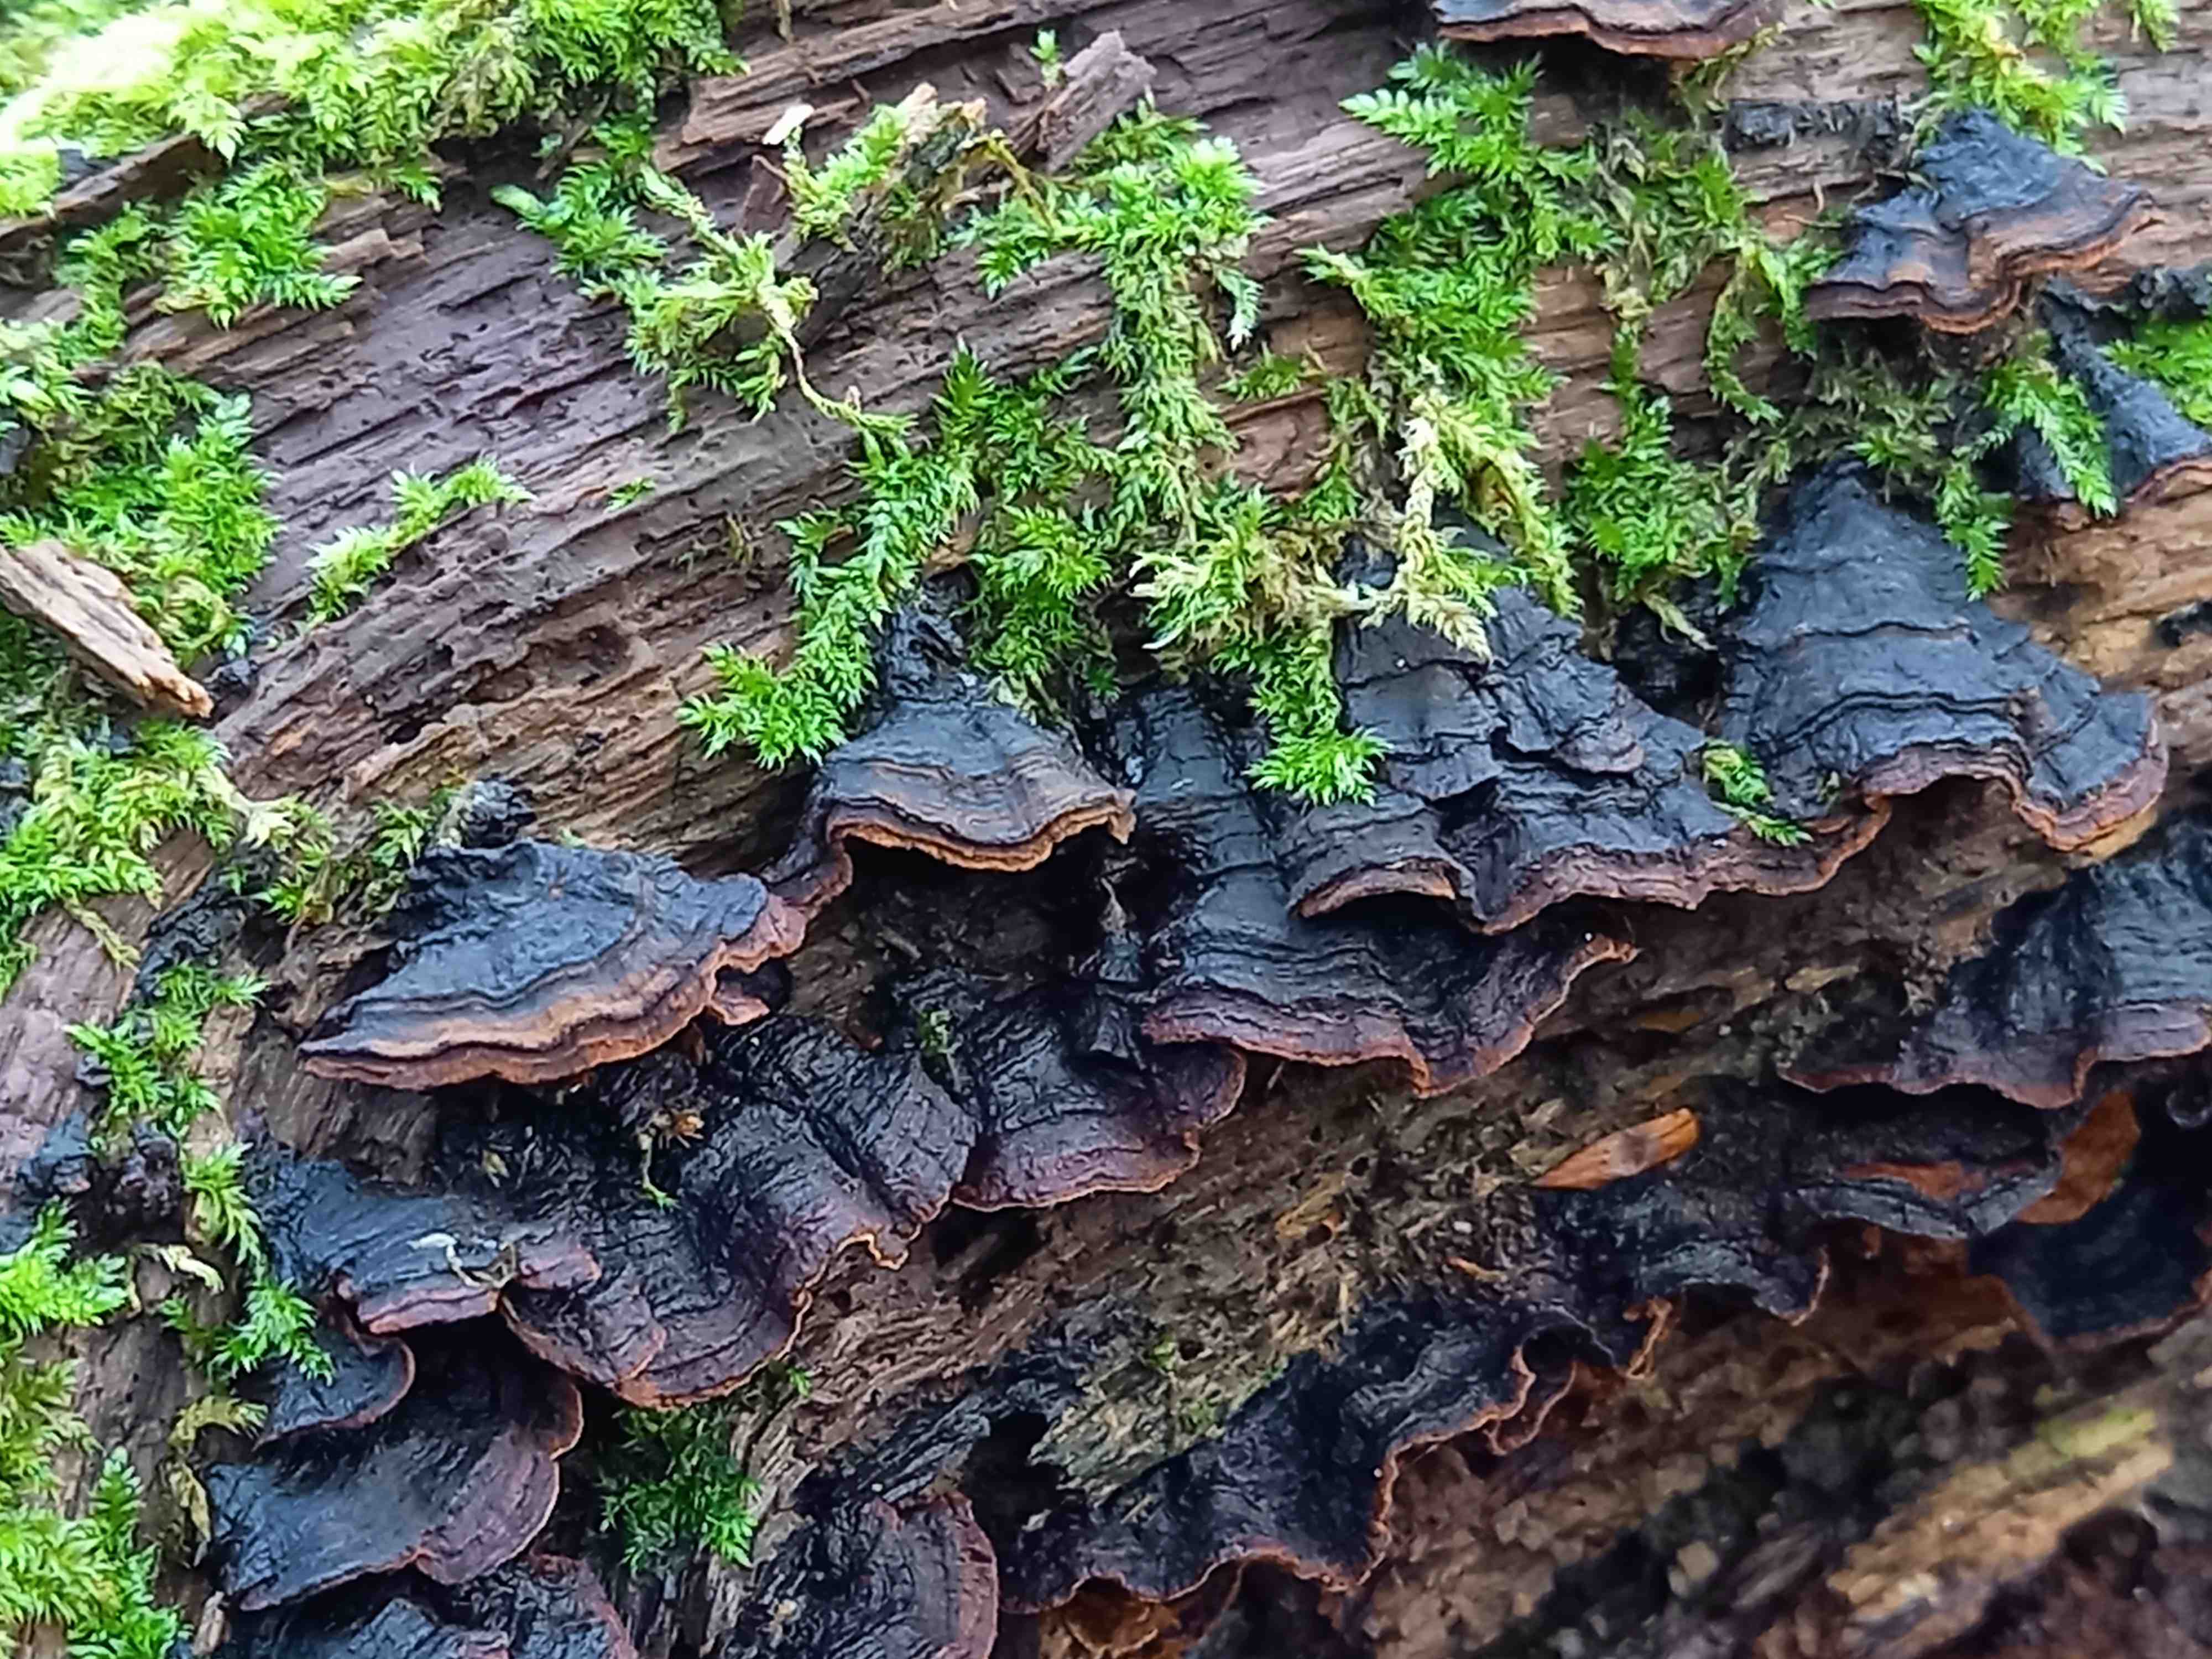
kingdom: Fungi
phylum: Basidiomycota
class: Agaricomycetes
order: Hymenochaetales
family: Hymenochaetaceae
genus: Hymenochaete
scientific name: Hymenochaete rubiginosa
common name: stiv ruslædersvamp
